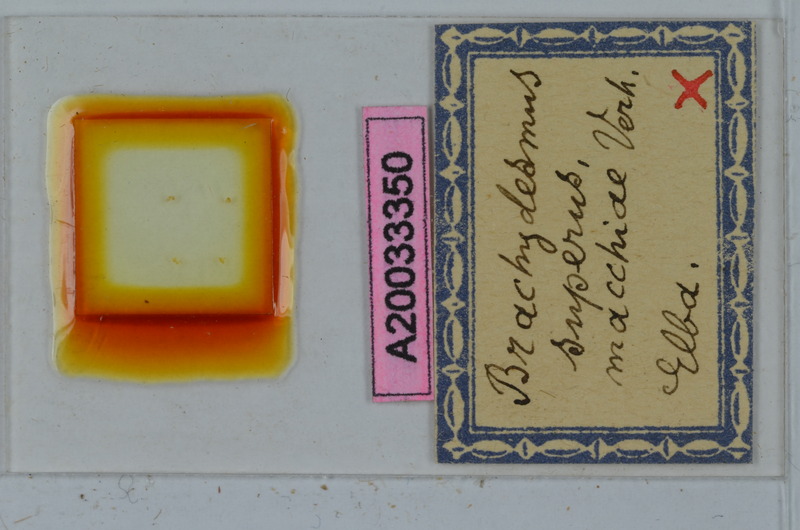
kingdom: Animalia
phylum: Arthropoda
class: Diplopoda
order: Polydesmida
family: Polydesmidae
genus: Brachydesmus
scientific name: Brachydesmus superus
